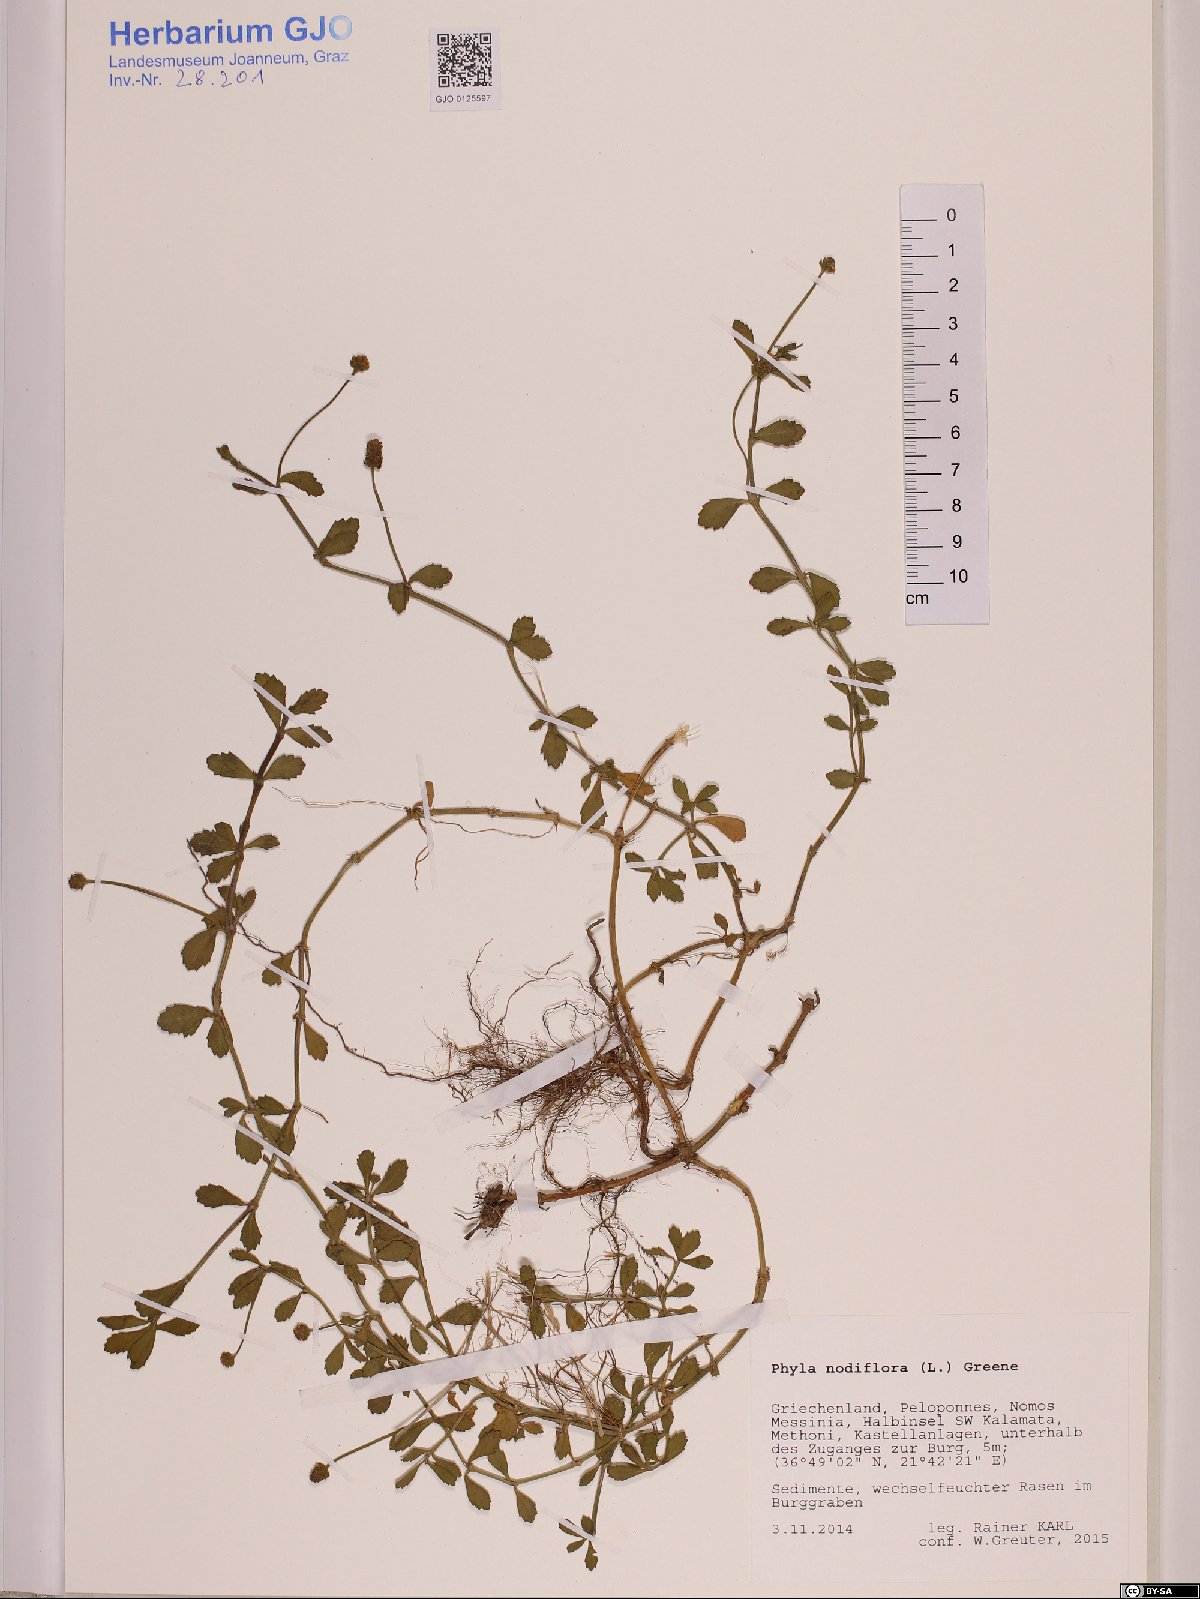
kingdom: Plantae
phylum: Tracheophyta
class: Magnoliopsida
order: Lamiales
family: Verbenaceae
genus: Phyla
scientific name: Phyla nodiflora
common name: Frogfruit
